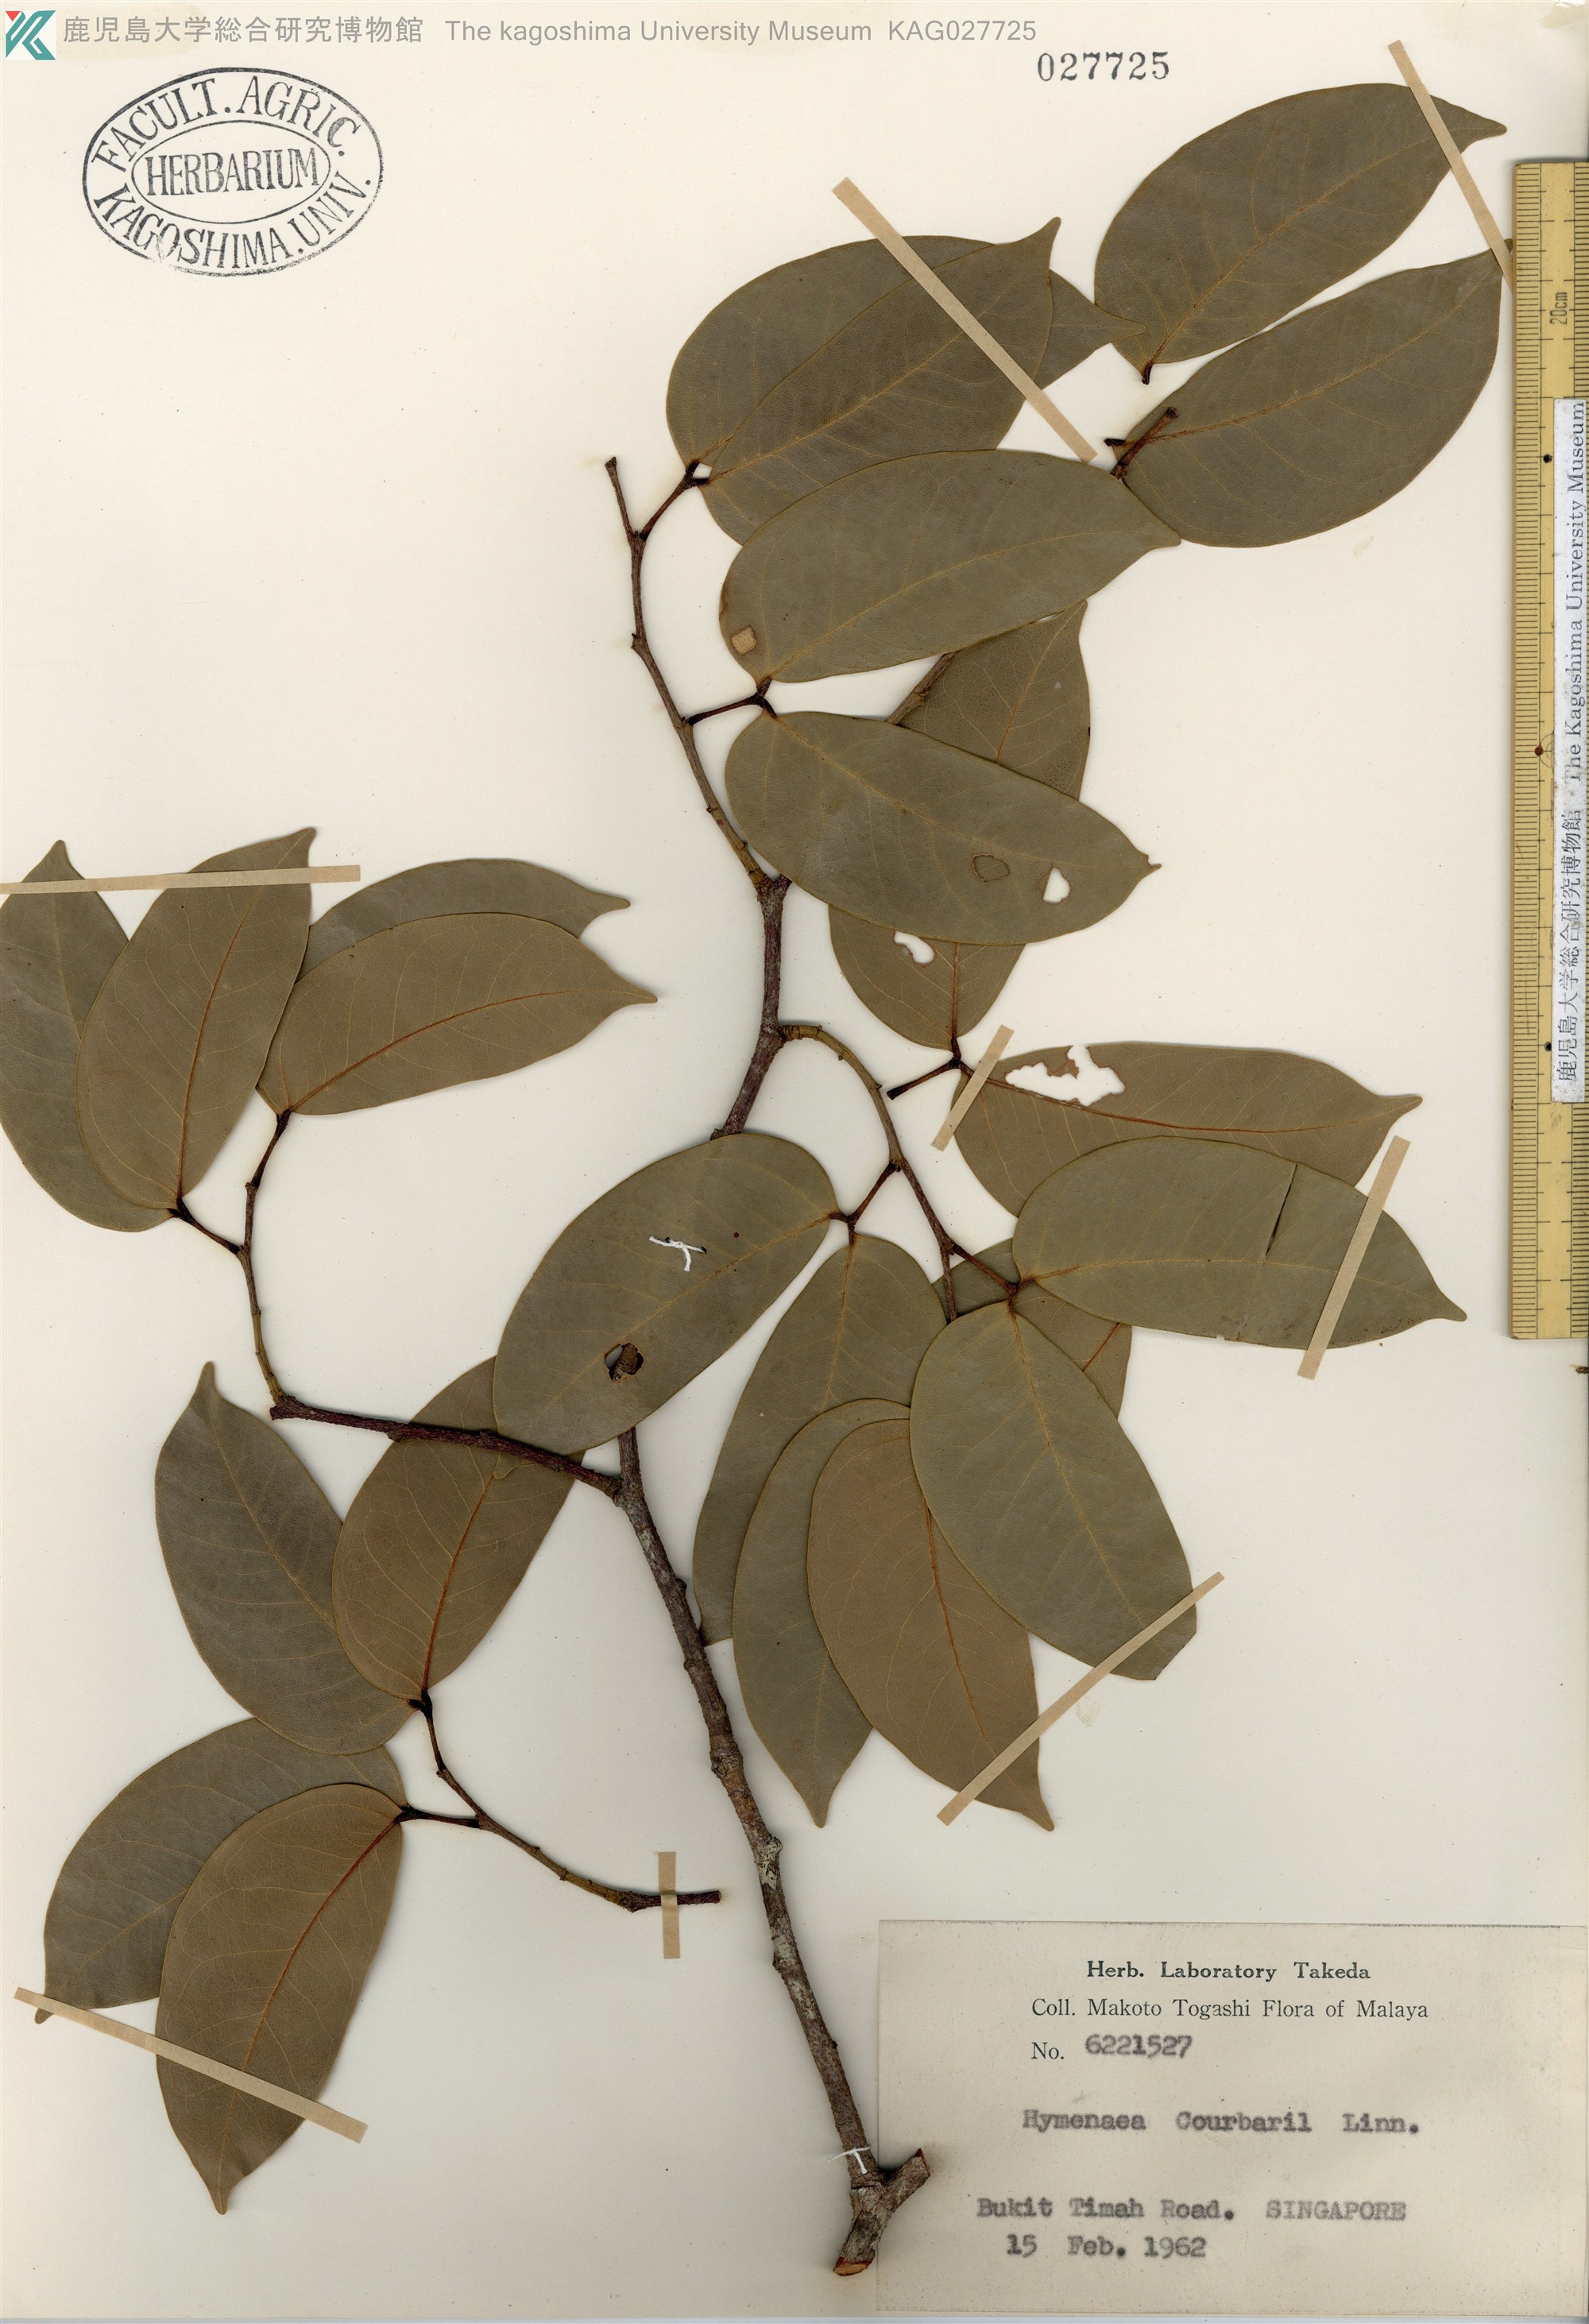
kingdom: Plantae
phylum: Tracheophyta
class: Magnoliopsida
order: Fabales
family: Fabaceae
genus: Hymenaea
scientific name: Hymenaea courbaril
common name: Brazilian copal
